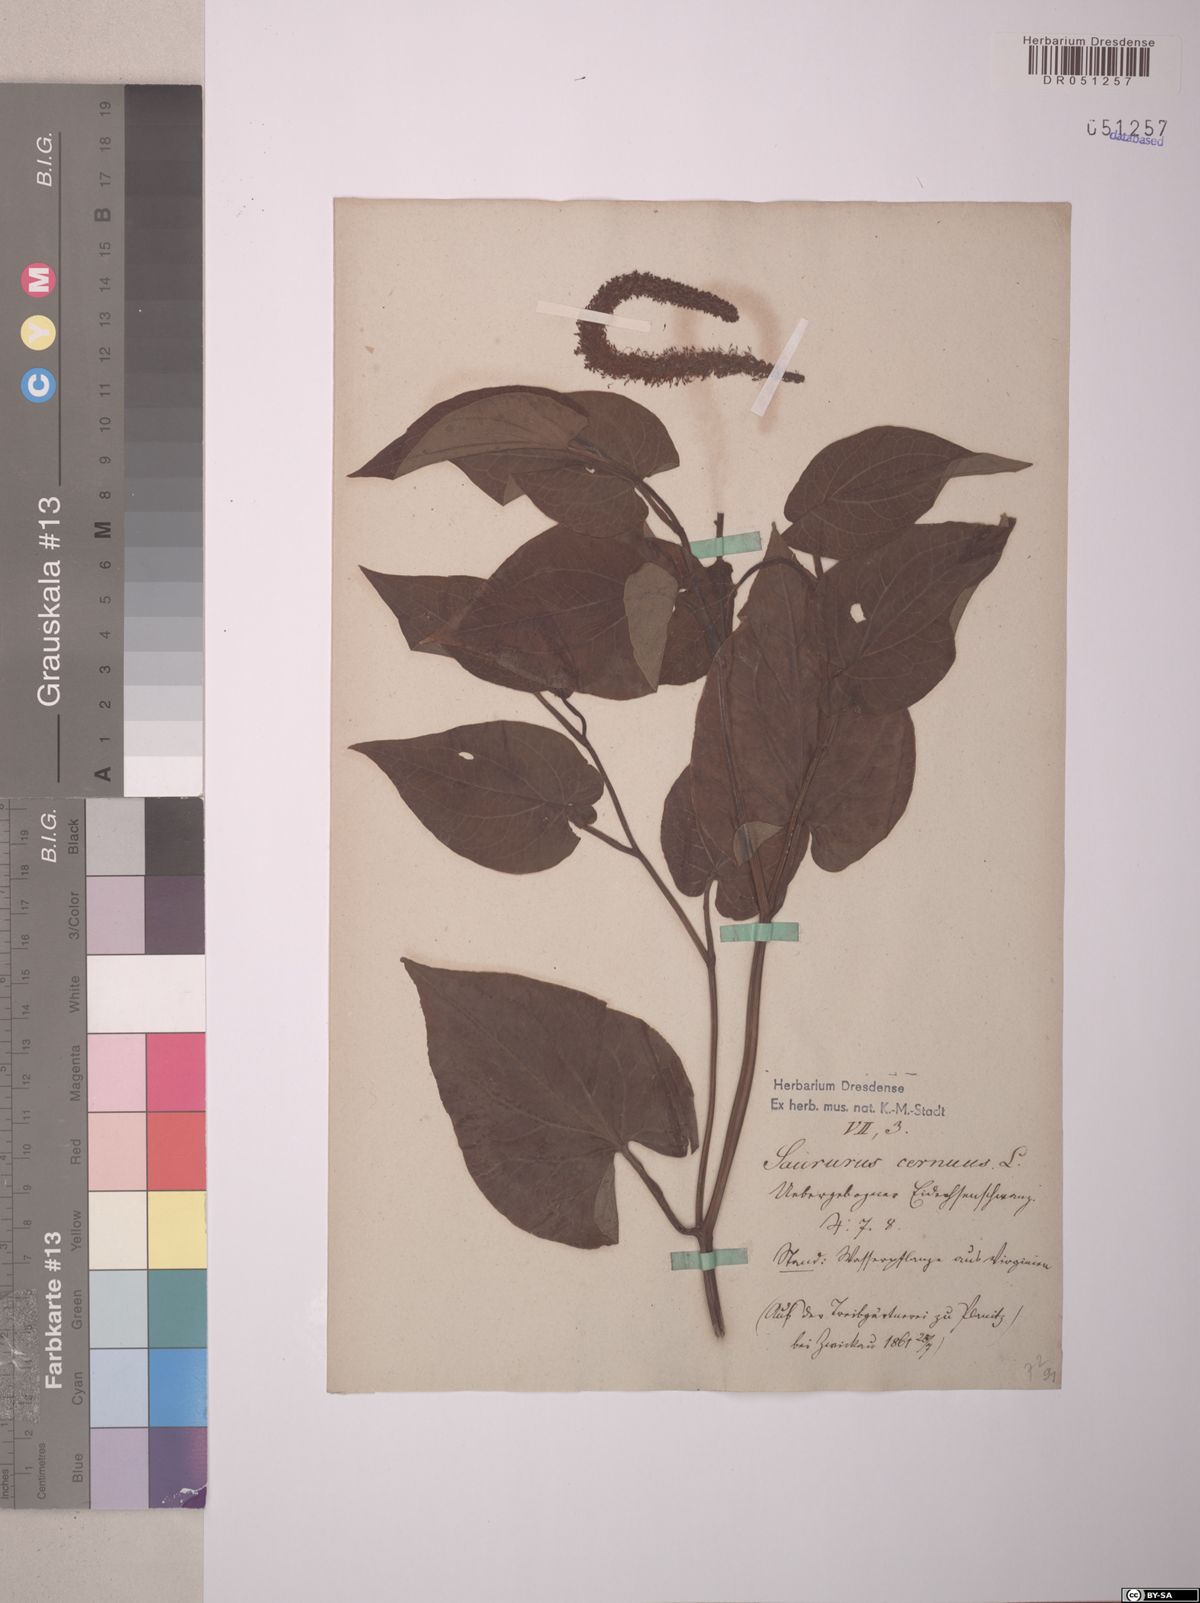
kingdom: Plantae
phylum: Tracheophyta
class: Magnoliopsida
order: Piperales
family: Saururaceae
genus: Saururus
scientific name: Saururus cernuus
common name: Lizard's-tail
